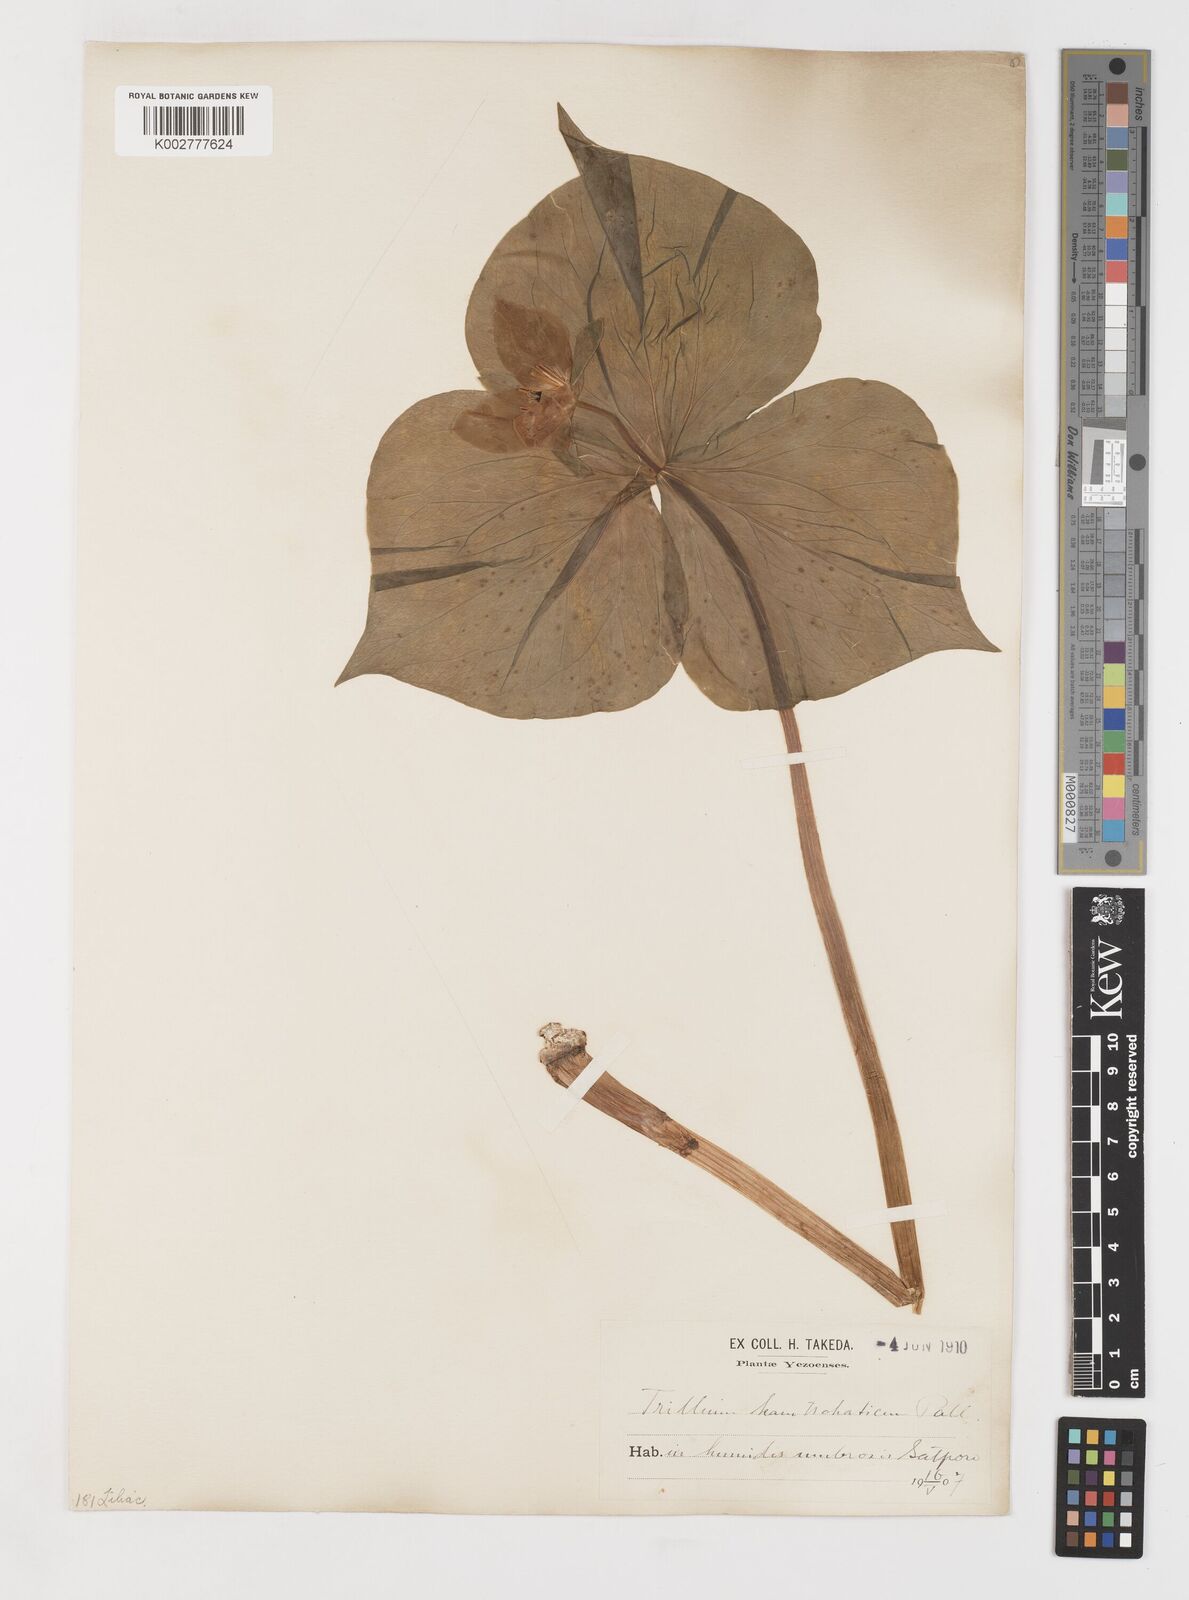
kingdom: Plantae
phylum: Tracheophyta
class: Liliopsida
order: Liliales
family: Melanthiaceae
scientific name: Melanthiaceae
